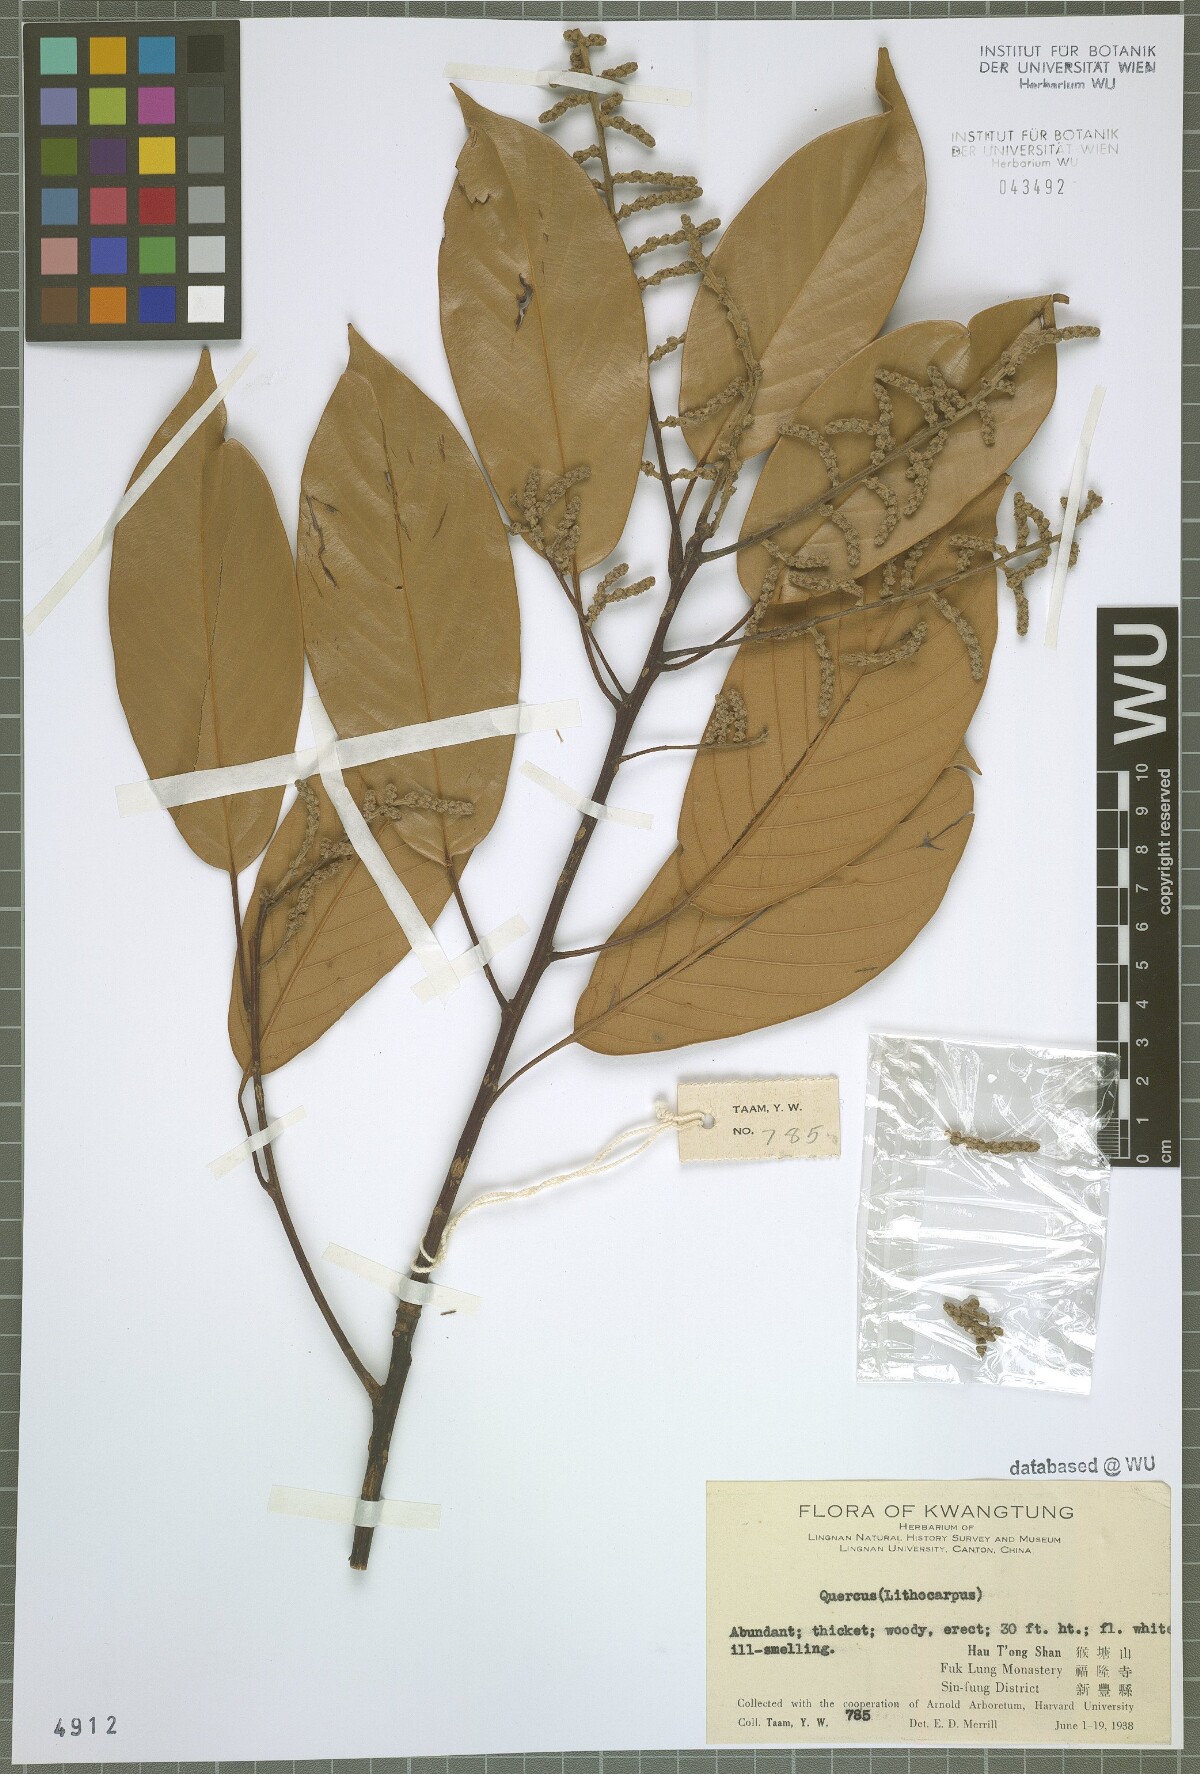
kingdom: Plantae
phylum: Tracheophyta
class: Magnoliopsida
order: Fagales
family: Fagaceae
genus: Quercus
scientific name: Quercus
